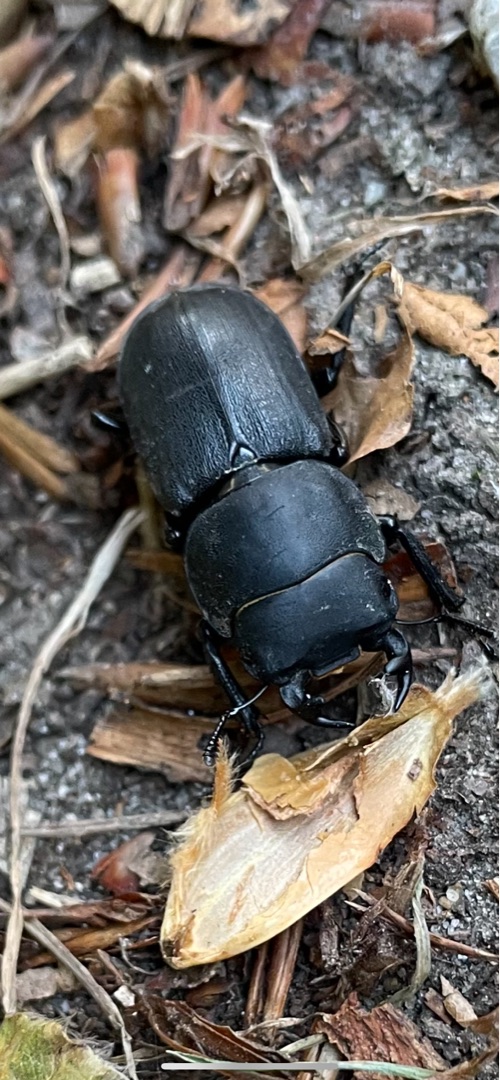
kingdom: Animalia
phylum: Arthropoda
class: Insecta
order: Coleoptera
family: Lucanidae
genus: Dorcus
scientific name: Dorcus parallelipipedus
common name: Bøghjort
